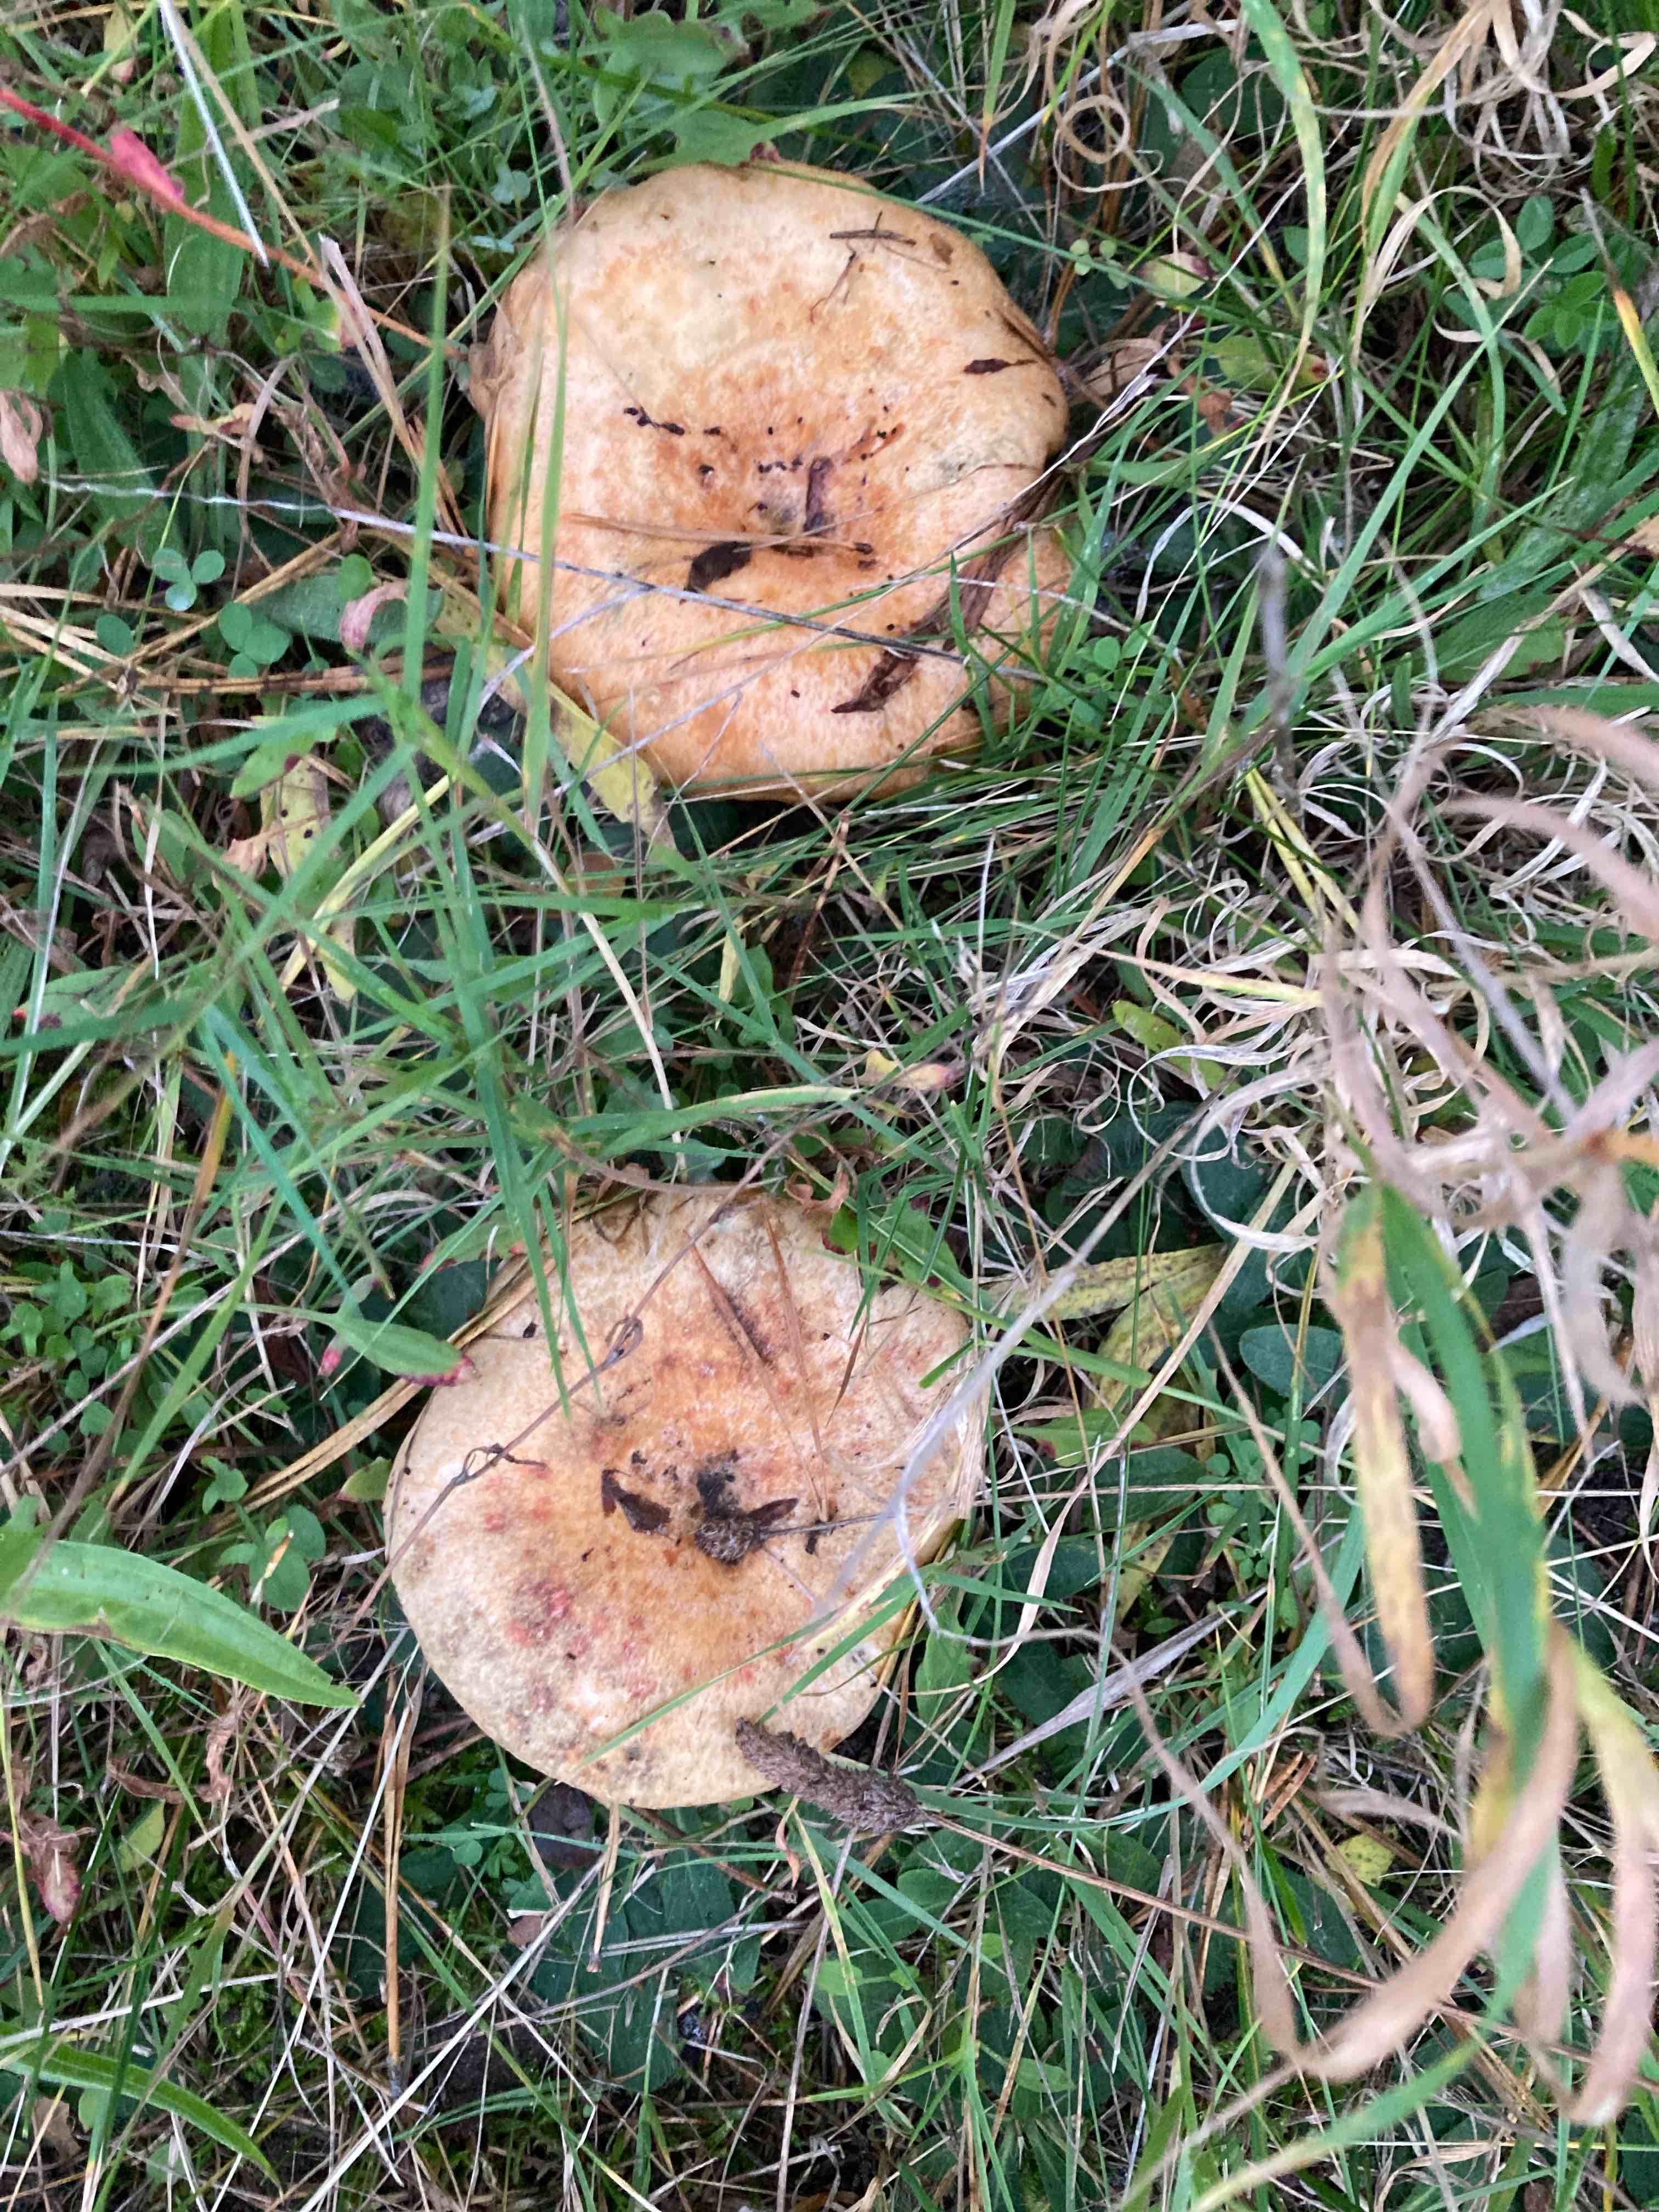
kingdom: Fungi
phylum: Basidiomycota
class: Agaricomycetes
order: Russulales
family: Russulaceae
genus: Lactarius
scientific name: Lactarius
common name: mælkehat
